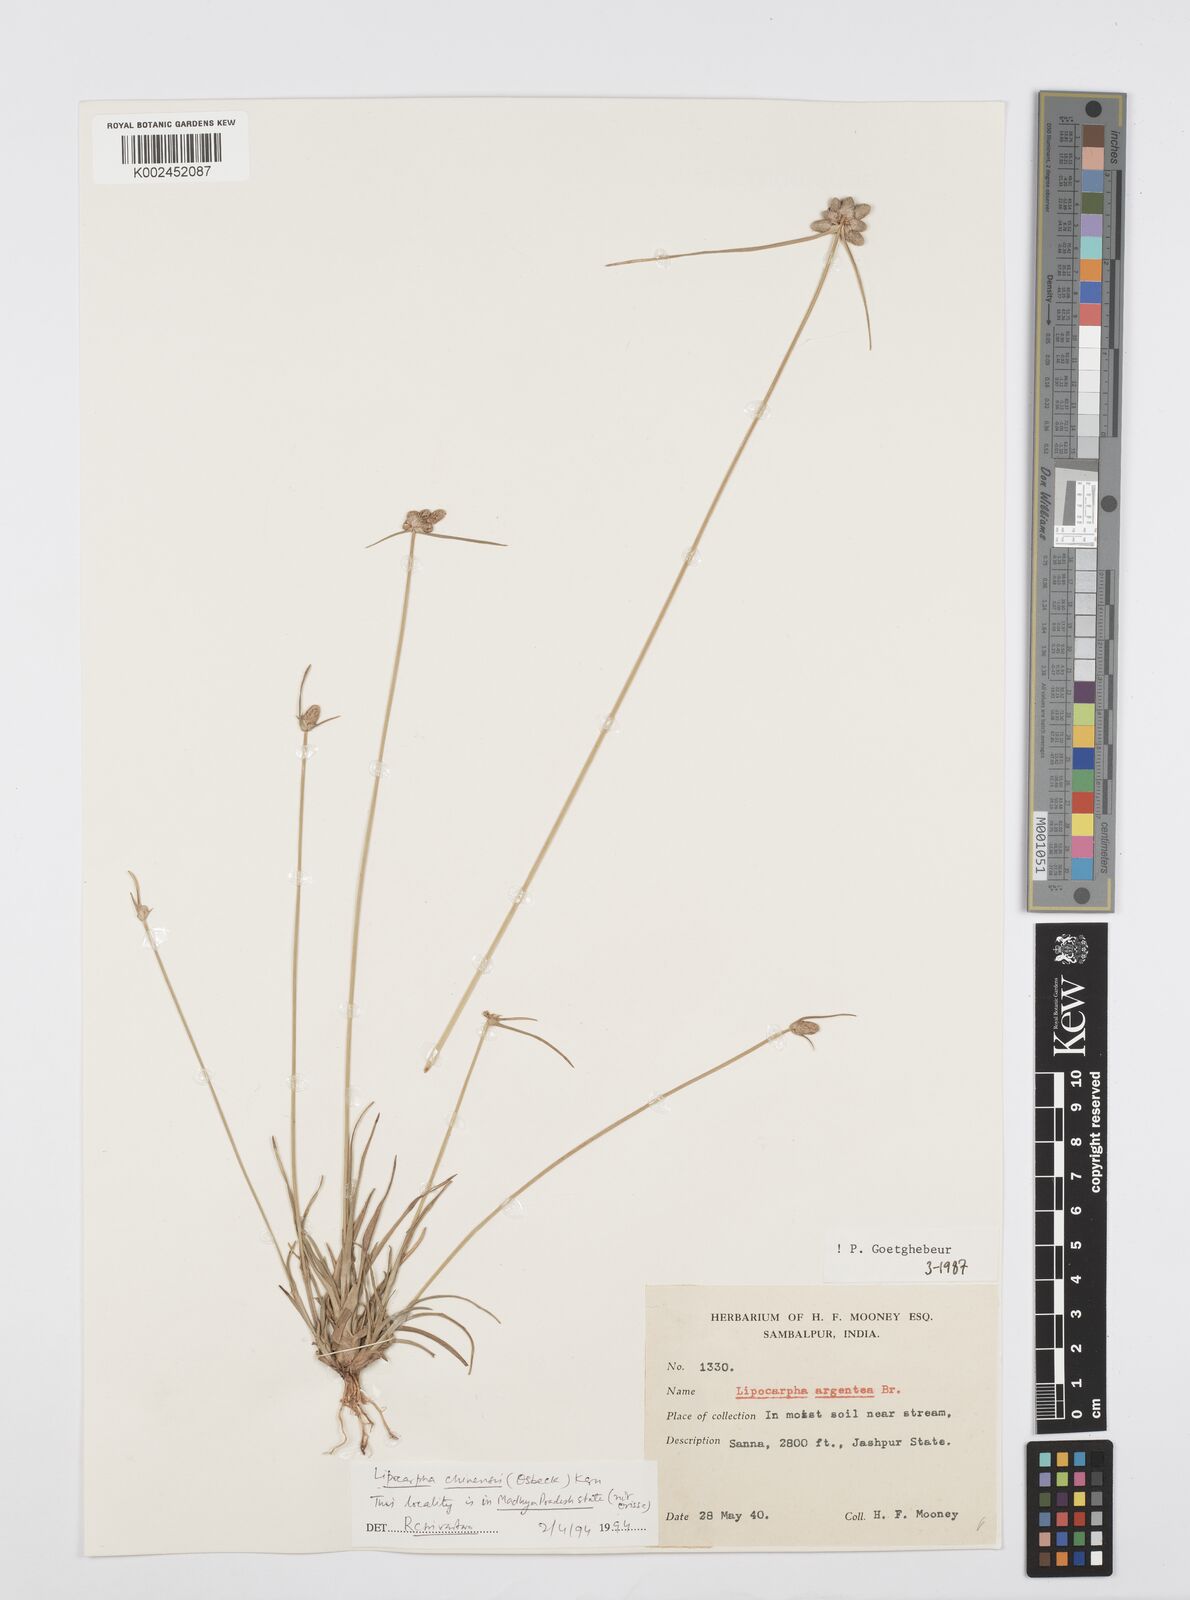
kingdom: Plantae
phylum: Tracheophyta
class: Liliopsida
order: Poales
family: Cyperaceae
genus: Cyperus
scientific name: Cyperus
